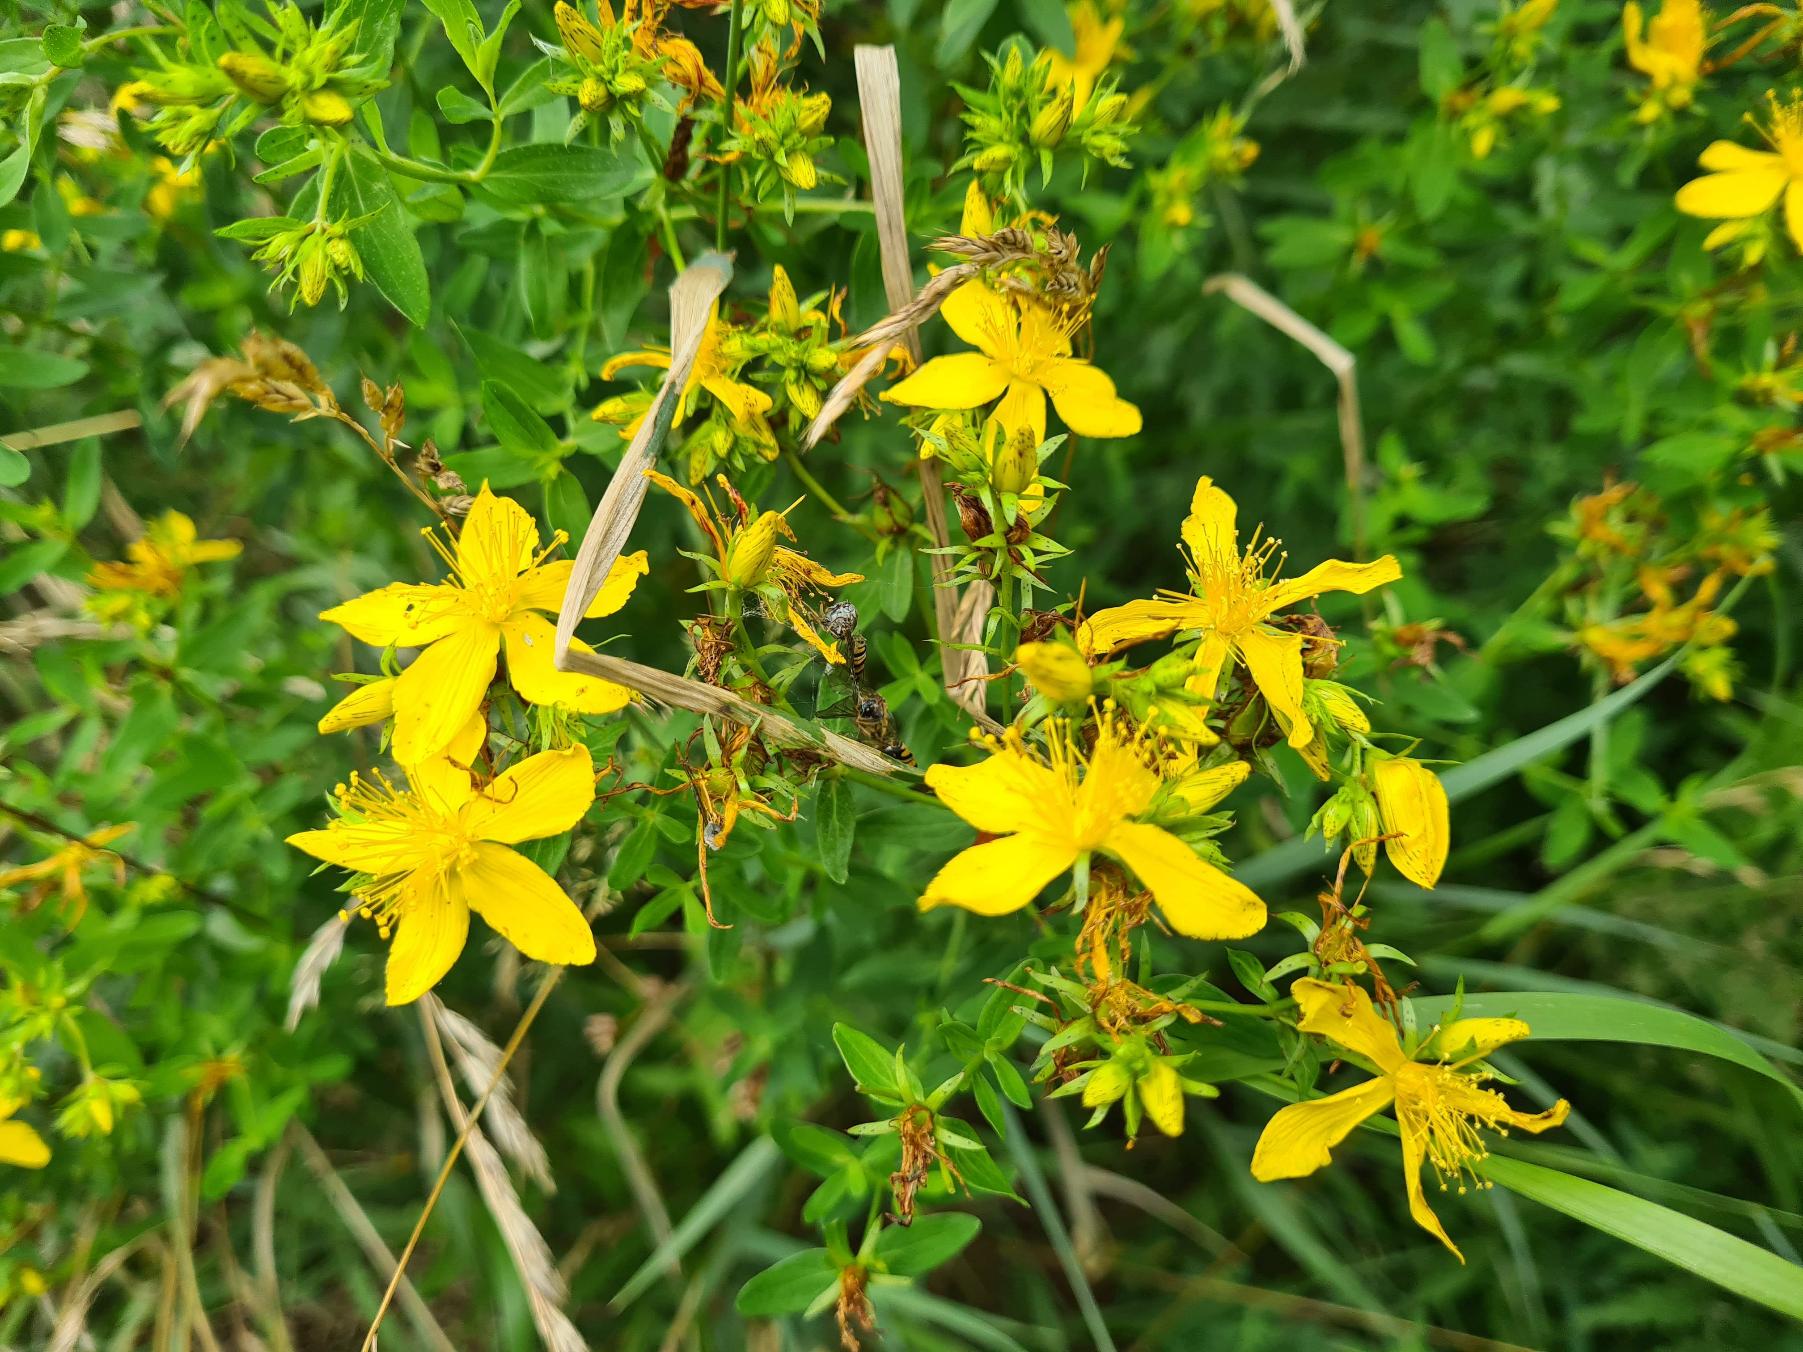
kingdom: Plantae
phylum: Tracheophyta
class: Magnoliopsida
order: Malpighiales
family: Hypericaceae
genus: Hypericum
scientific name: Hypericum perforatum
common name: Prikbladet perikon
